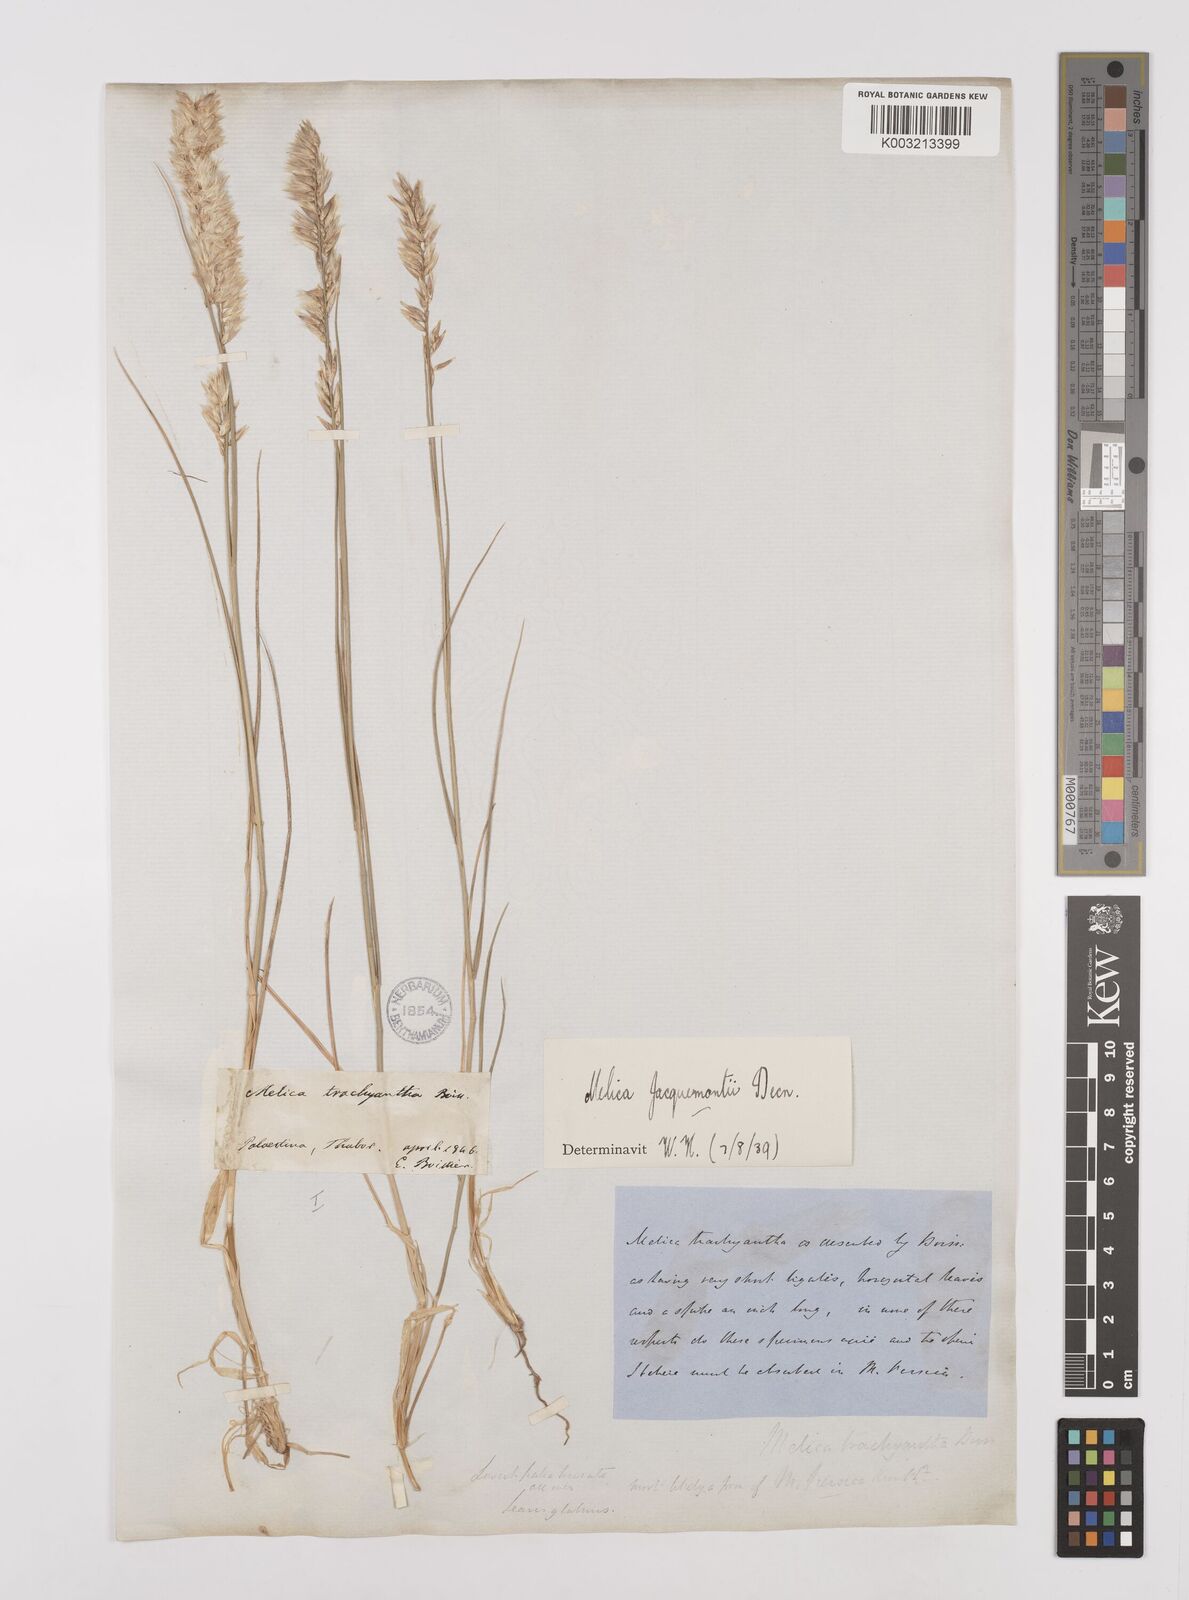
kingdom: Plantae
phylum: Tracheophyta
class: Liliopsida
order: Poales
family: Poaceae
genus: Melica
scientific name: Melica persica
